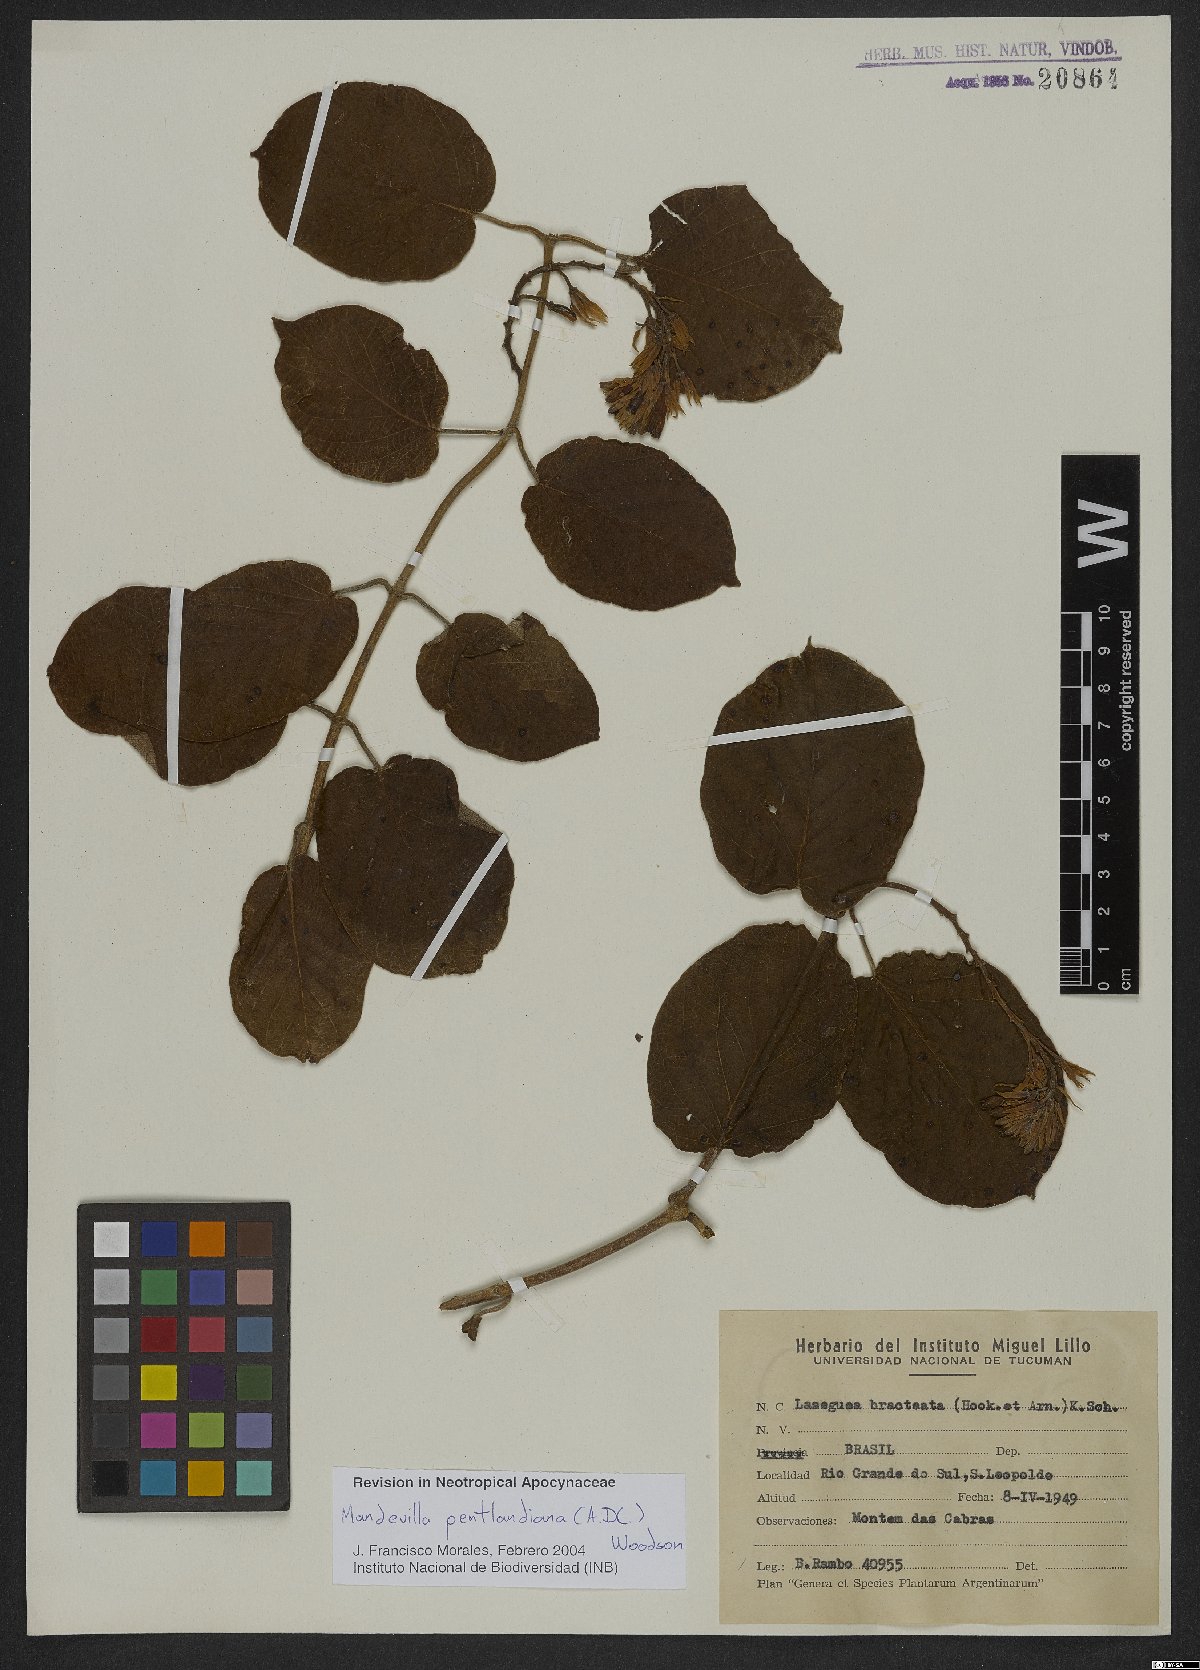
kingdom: Plantae
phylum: Tracheophyta
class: Magnoliopsida
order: Gentianales
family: Apocynaceae
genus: Mandevilla
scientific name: Mandevilla pentlandiana
